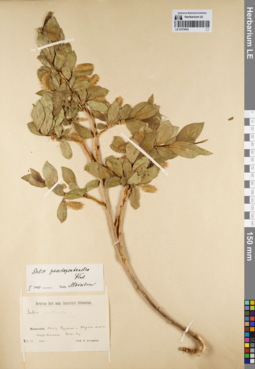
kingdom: Plantae
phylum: Tracheophyta
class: Magnoliopsida
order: Malpighiales
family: Salicaceae
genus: Salix
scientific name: Salix pseudopentandra
